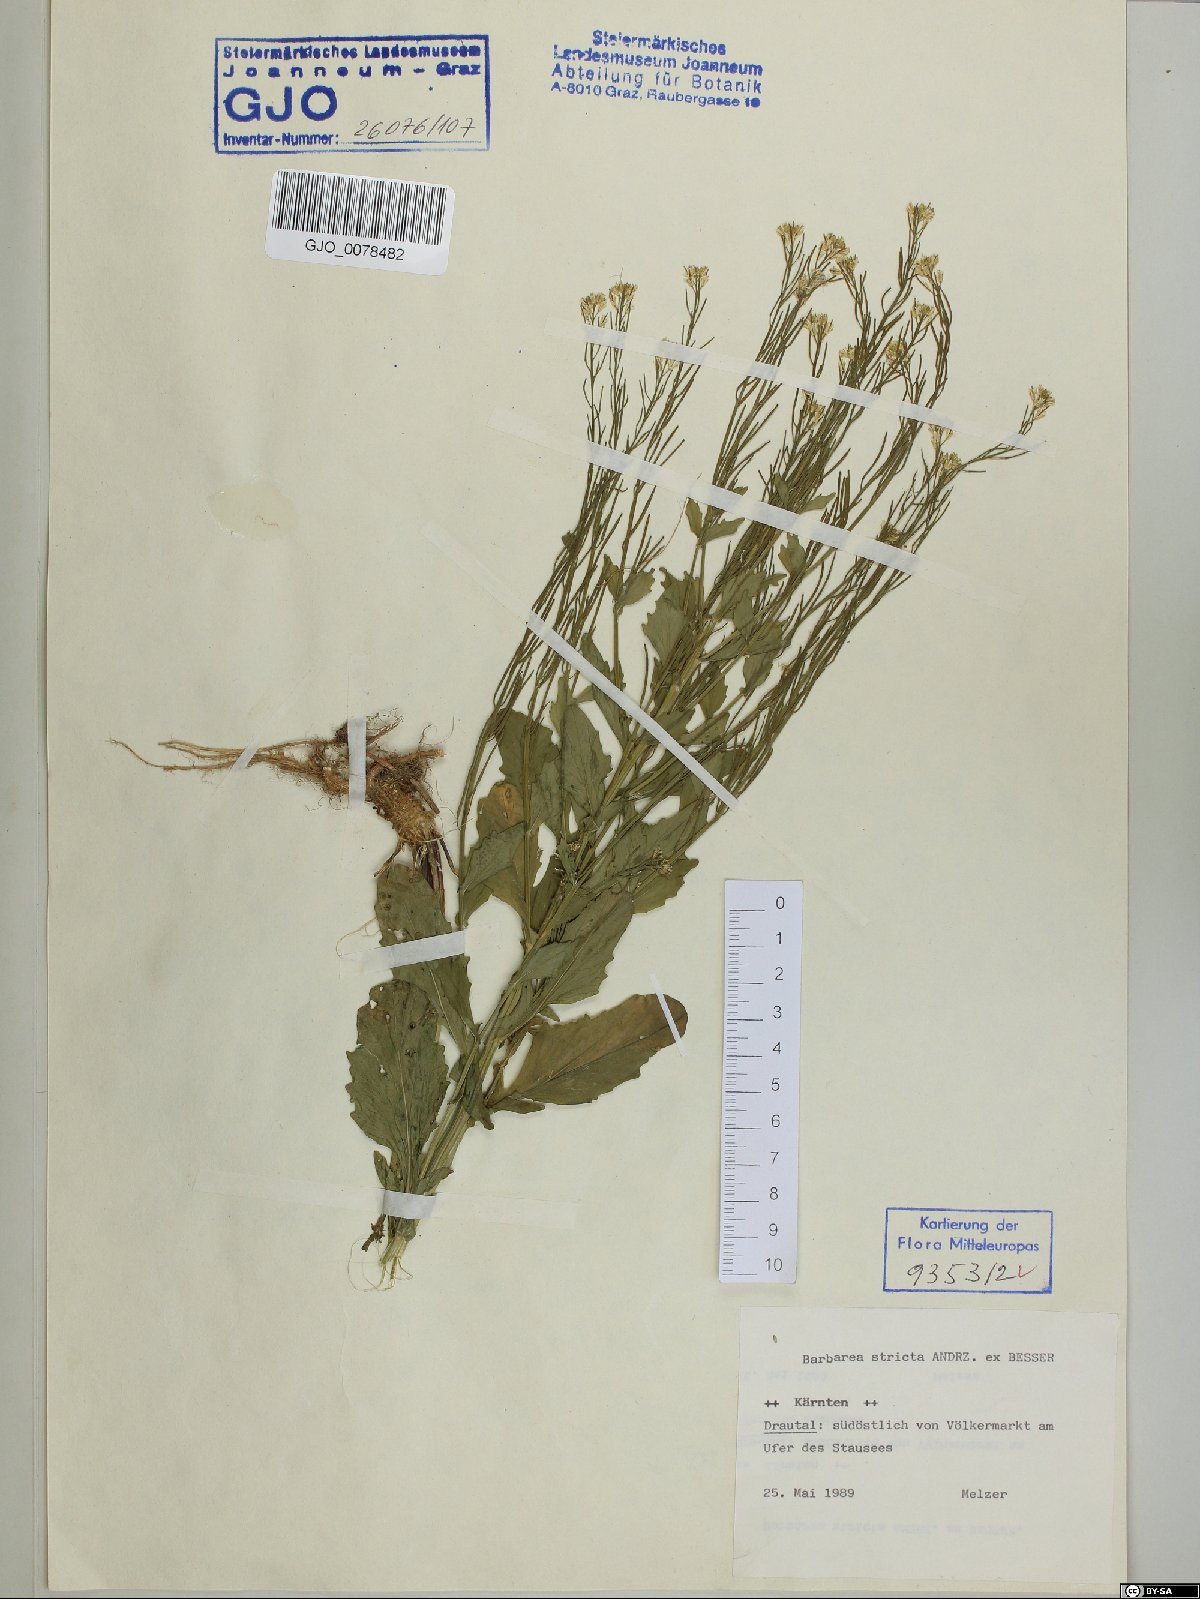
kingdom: Plantae
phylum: Tracheophyta
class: Magnoliopsida
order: Brassicales
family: Brassicaceae
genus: Barbarea
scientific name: Barbarea stricta
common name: Small-flowered winter-cress
